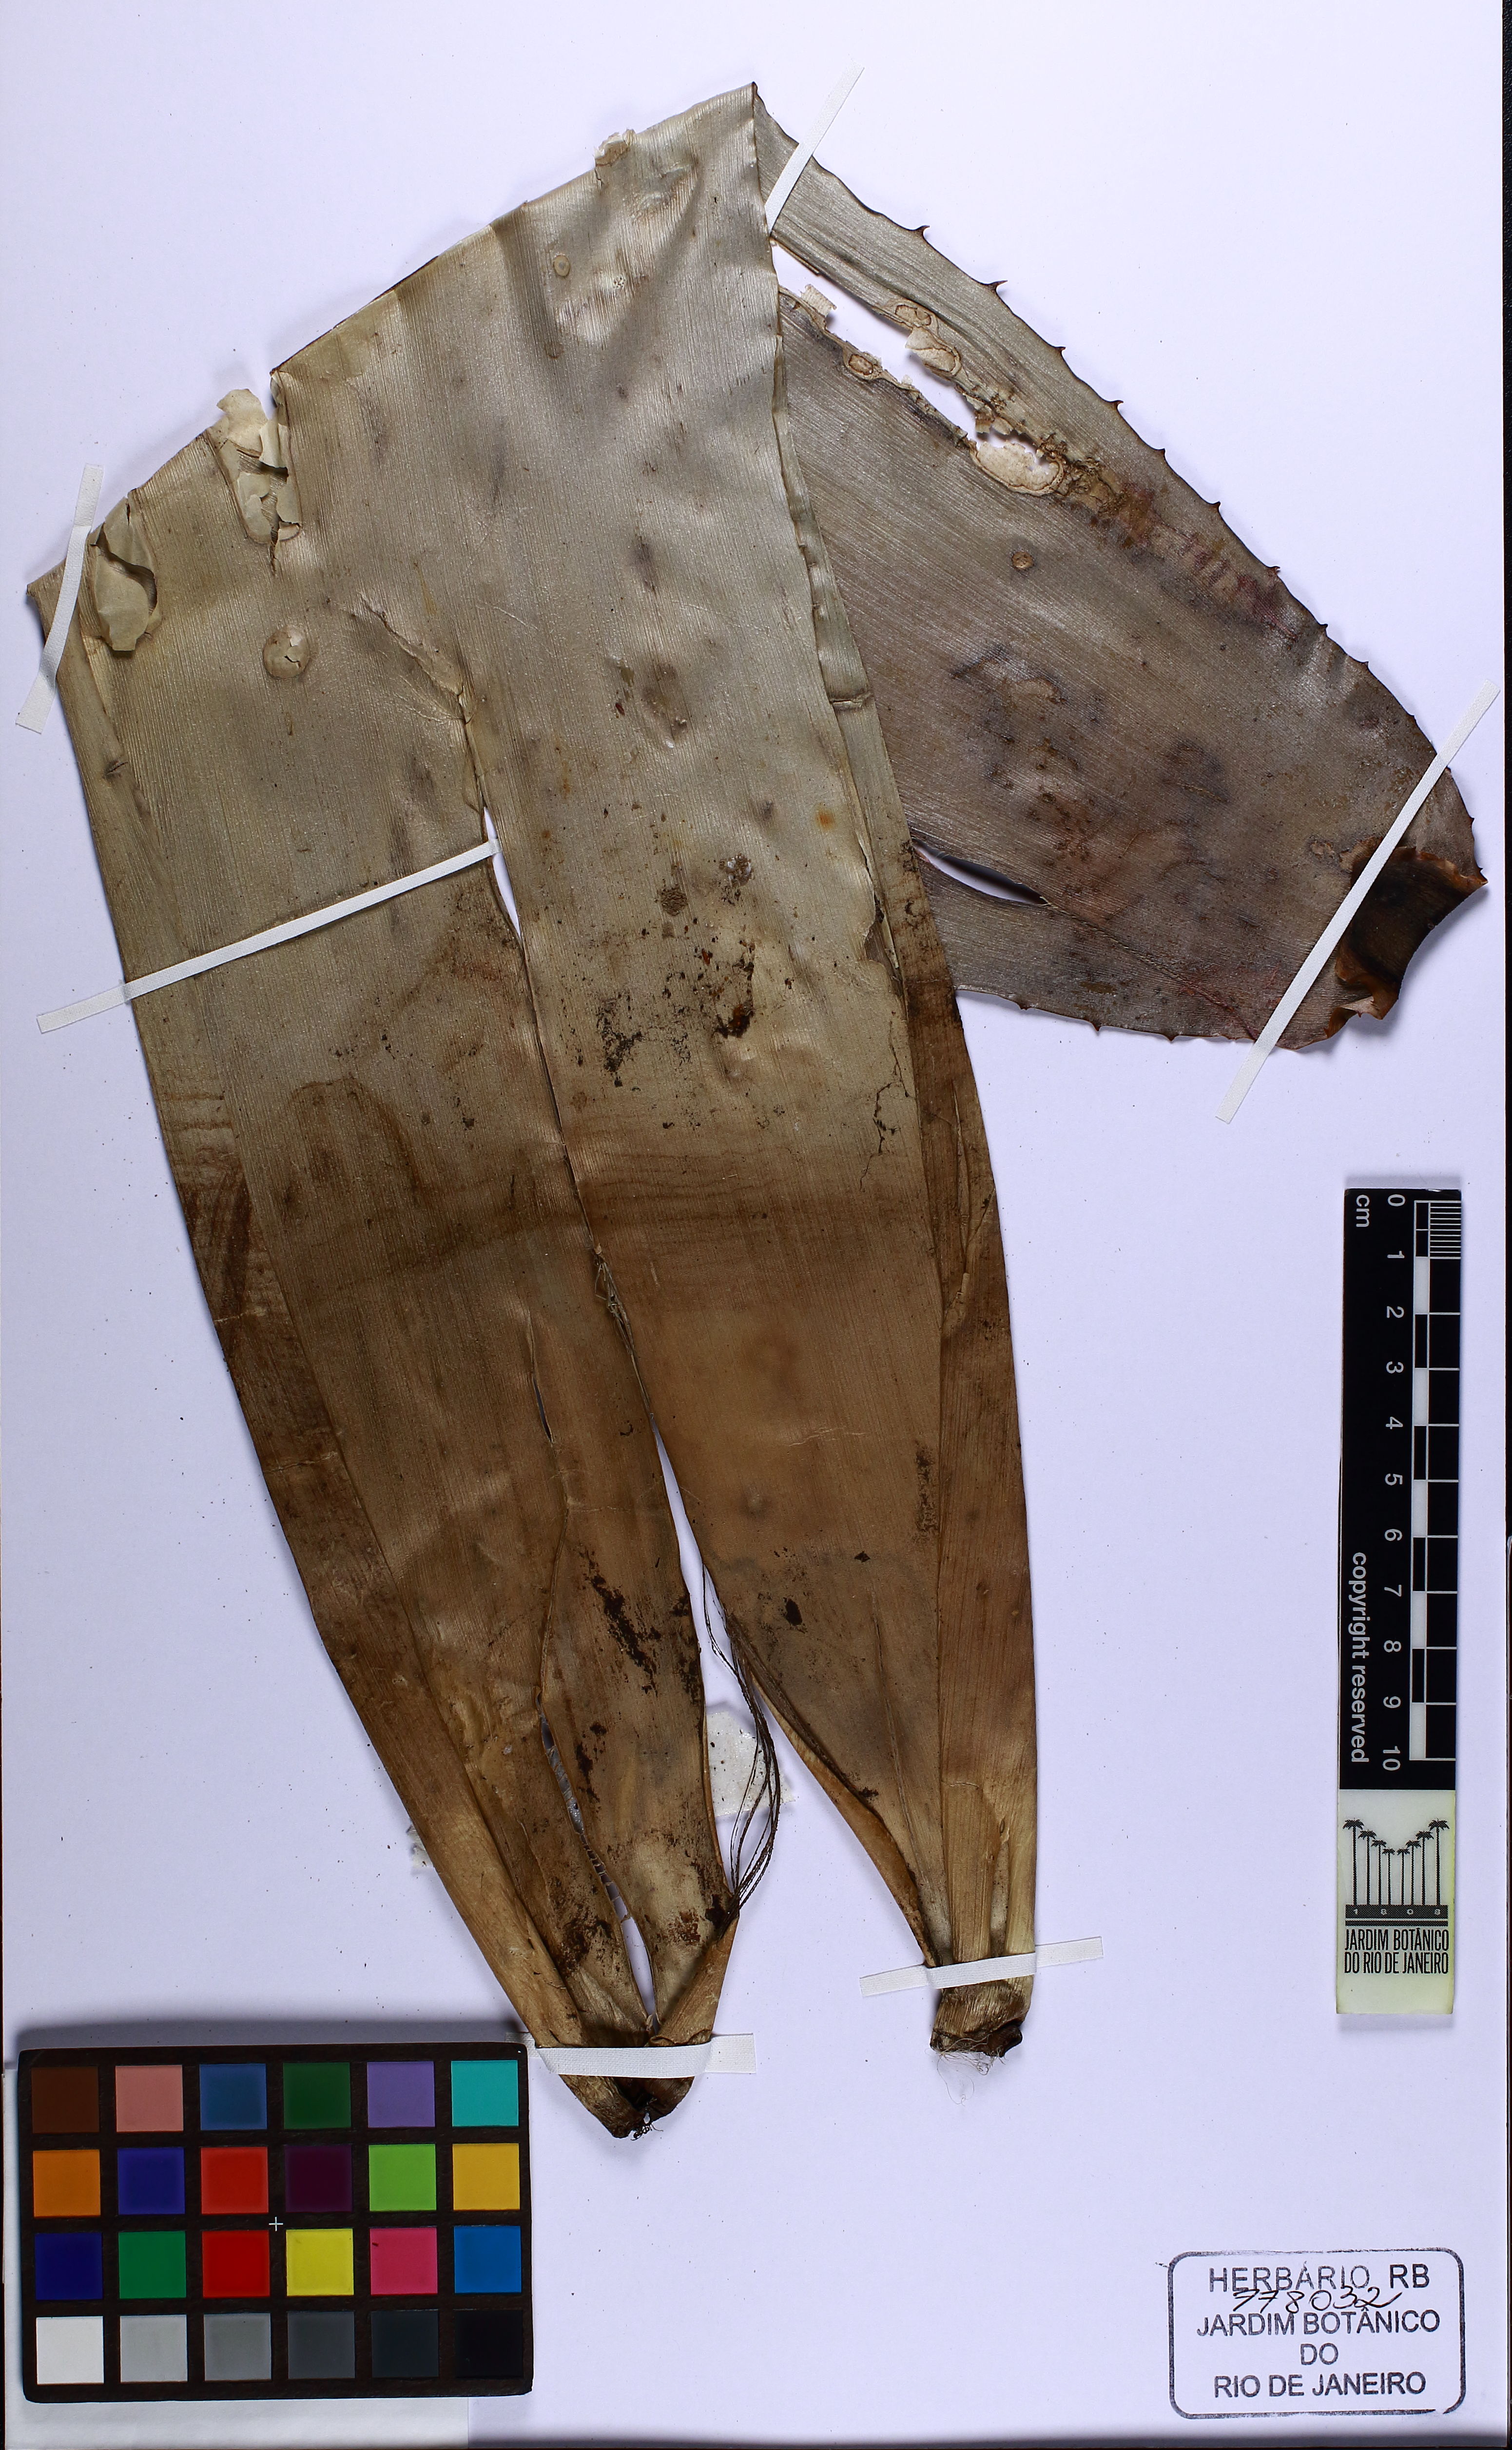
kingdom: Plantae
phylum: Tracheophyta
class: Liliopsida
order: Poales
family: Bromeliaceae
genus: Aechmea
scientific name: Aechmea bromeliifolia
